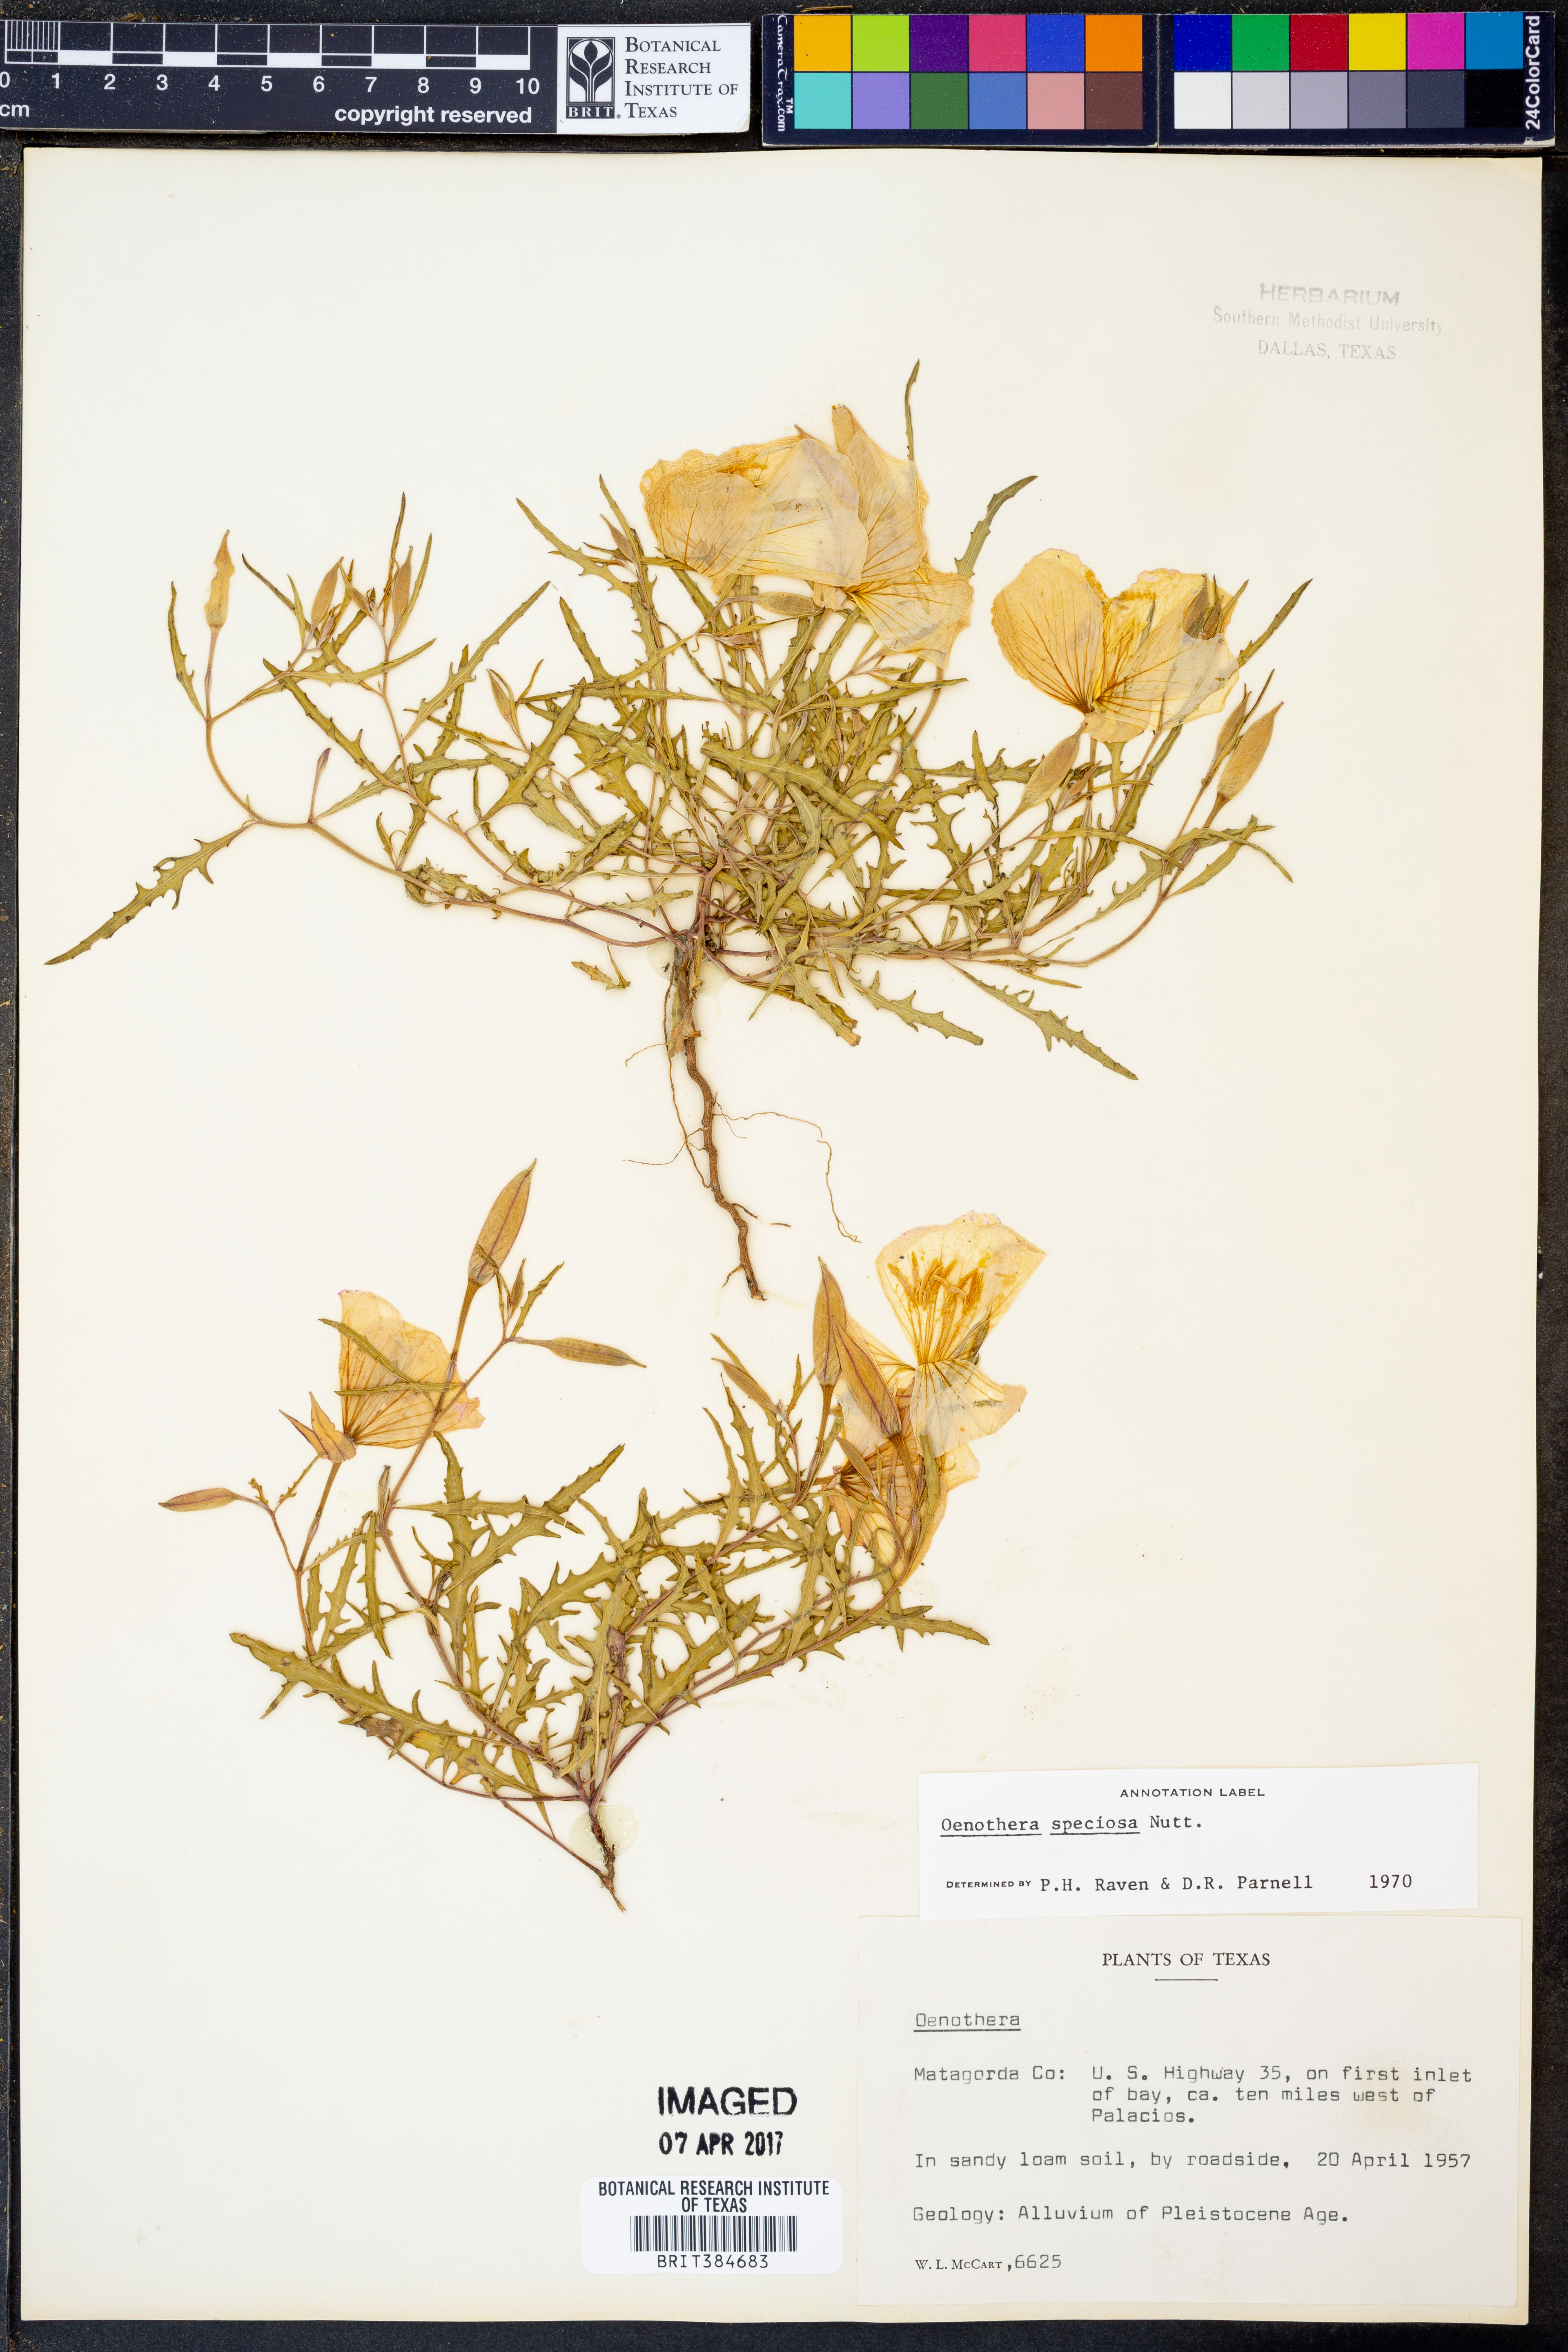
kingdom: Plantae
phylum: Tracheophyta
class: Magnoliopsida
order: Myrtales
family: Onagraceae
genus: Oenothera
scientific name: Oenothera speciosa
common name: White evening-primrose
